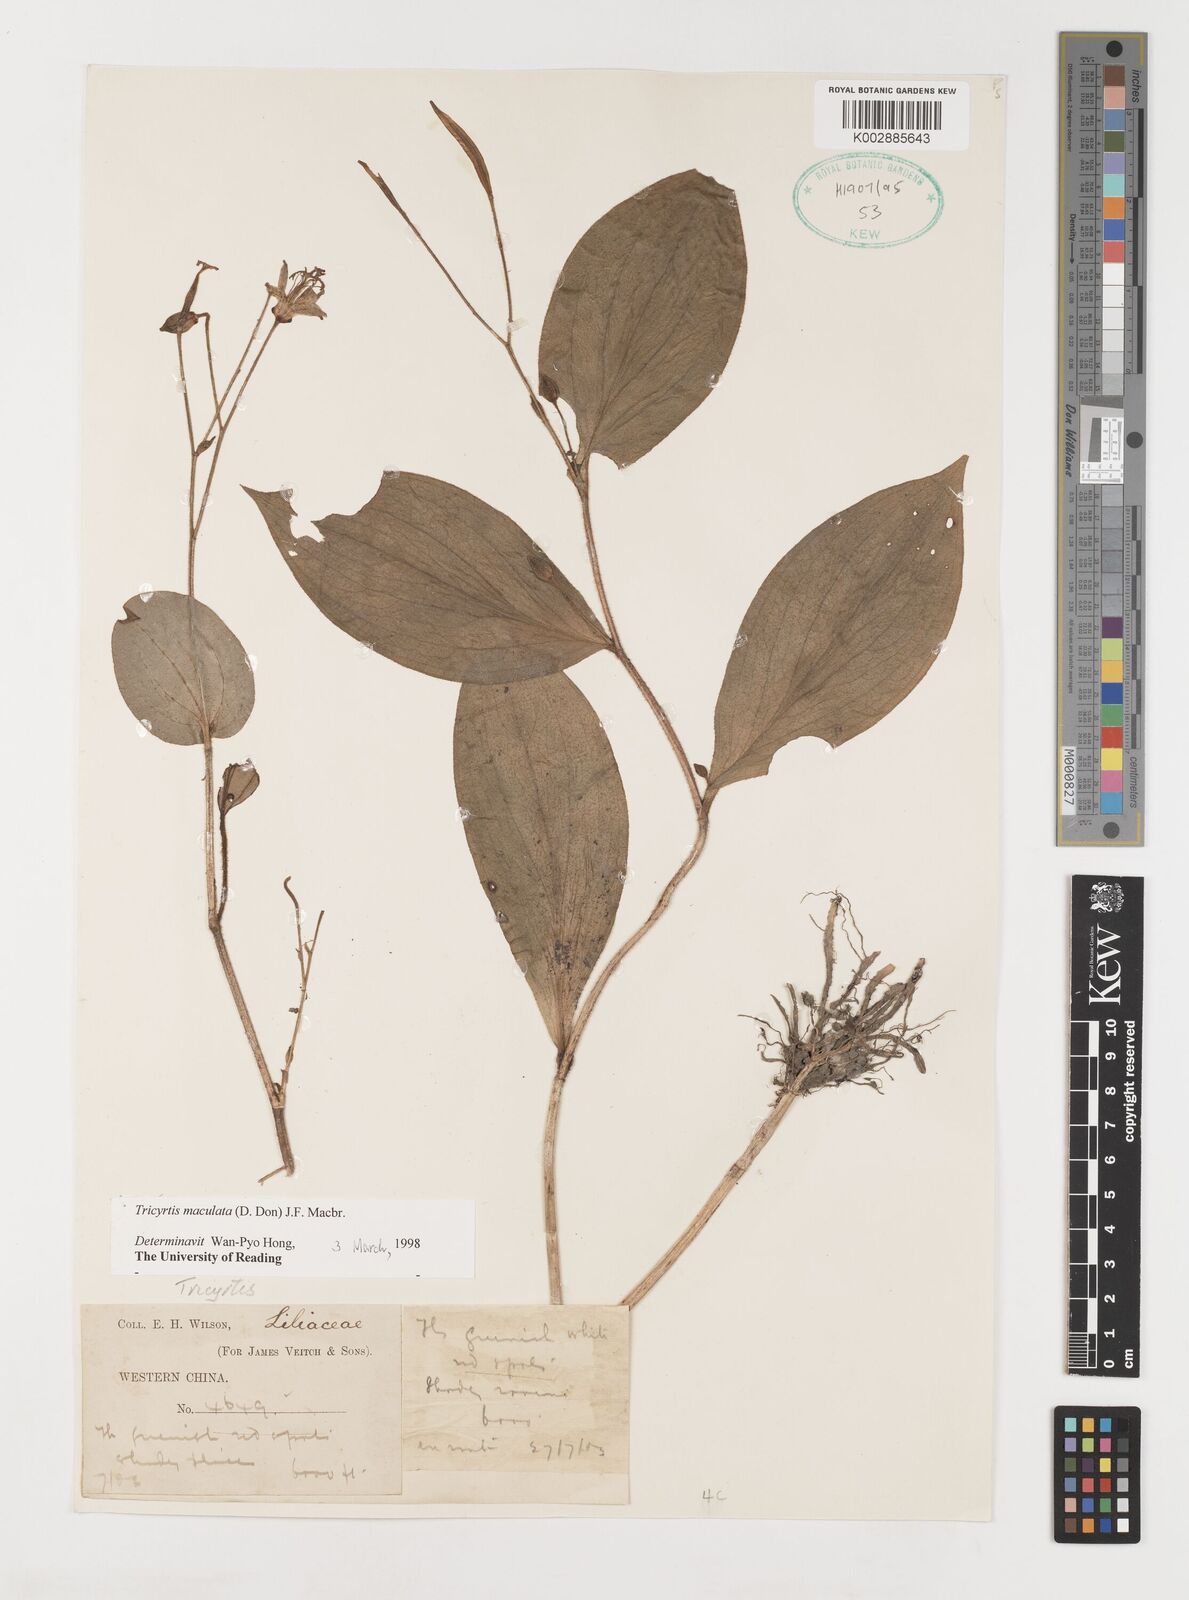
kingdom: Plantae
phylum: Tracheophyta
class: Liliopsida
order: Liliales
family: Liliaceae
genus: Tricyrtis
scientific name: Tricyrtis maculata
